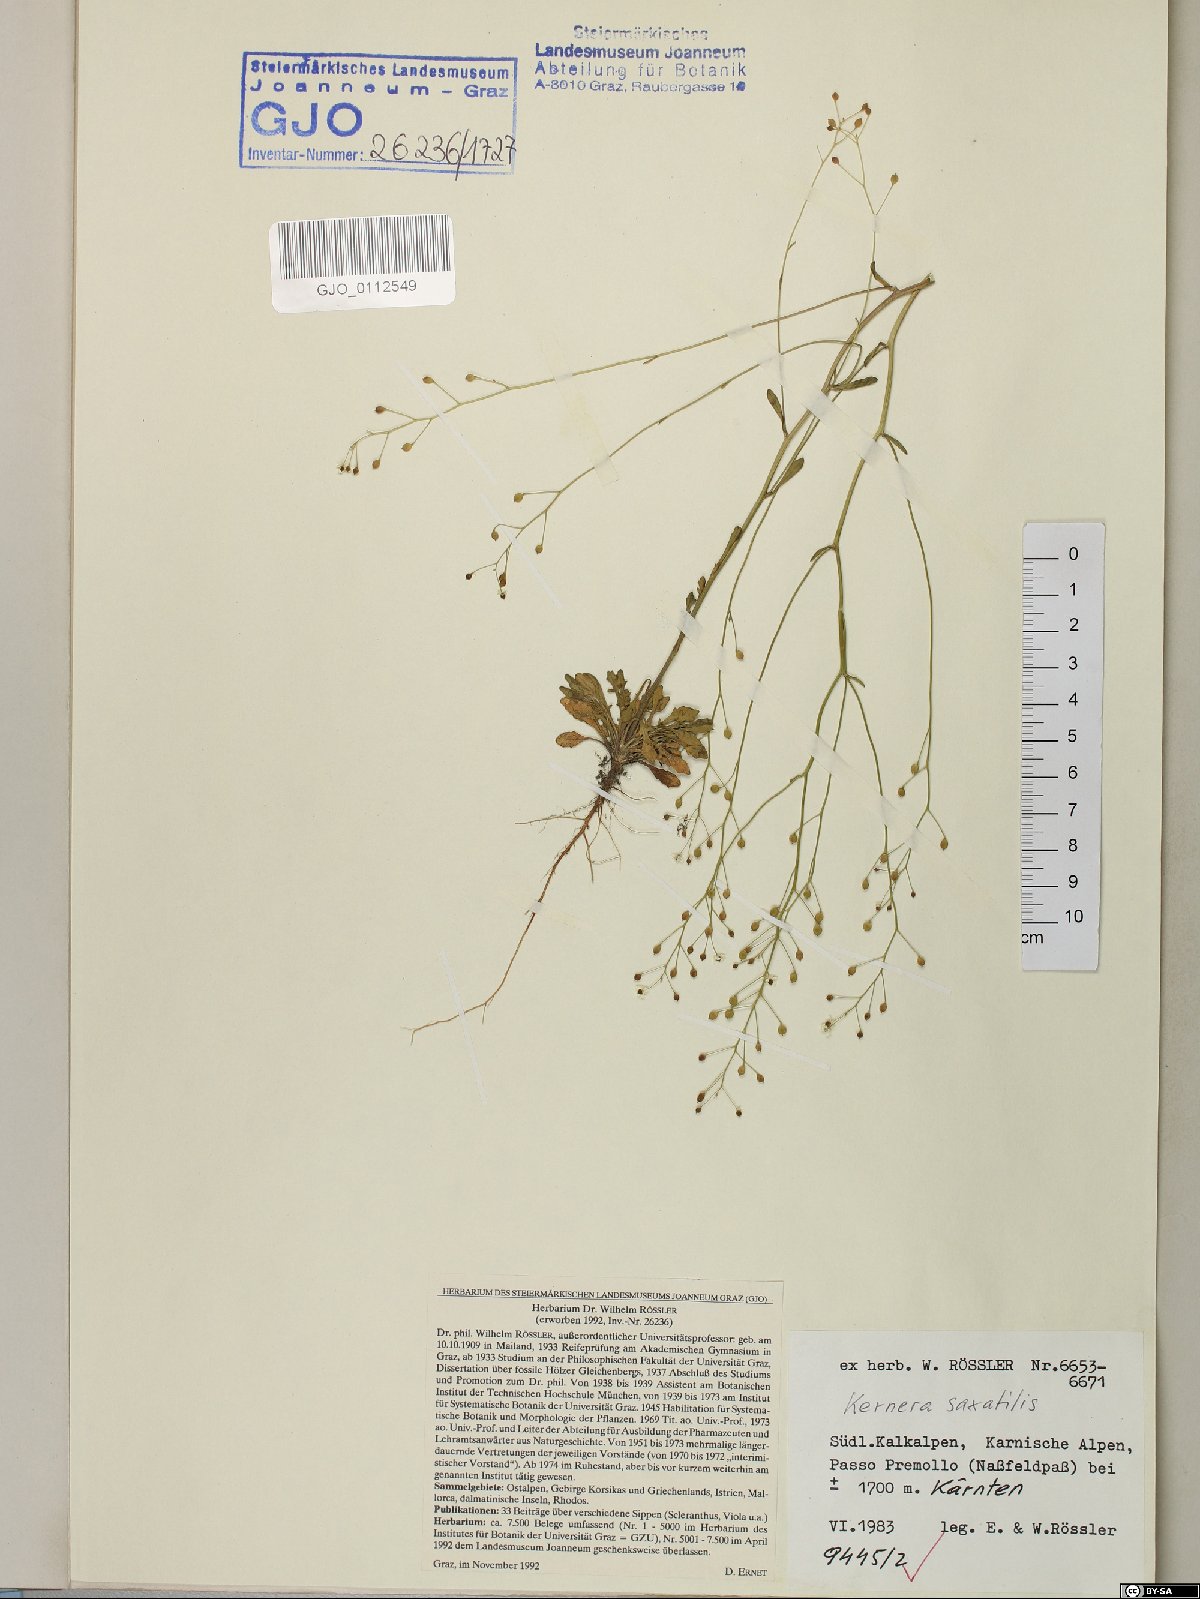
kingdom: Plantae
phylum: Tracheophyta
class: Magnoliopsida
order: Brassicales
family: Brassicaceae
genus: Kernera
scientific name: Kernera saxatilis
